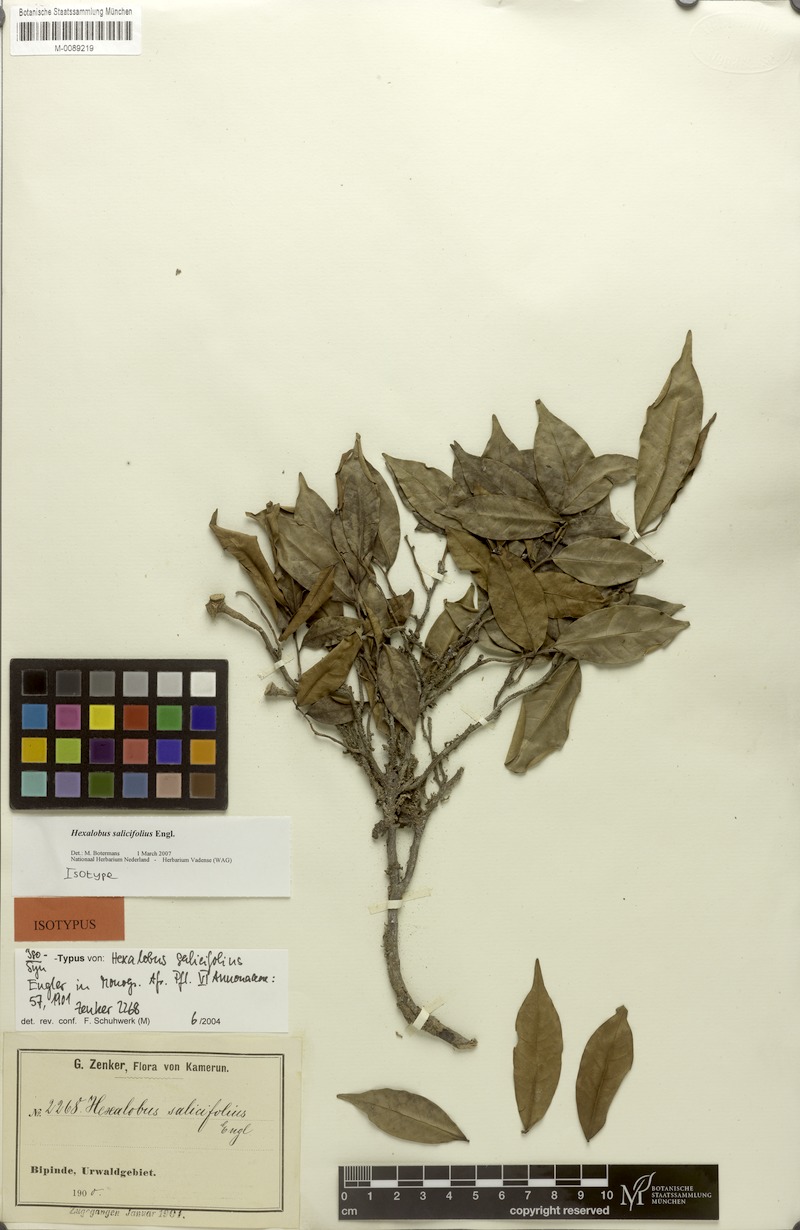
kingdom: Plantae
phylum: Tracheophyta
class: Magnoliopsida
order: Magnoliales
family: Annonaceae
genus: Hexalobus
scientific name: Hexalobus salicifolius
